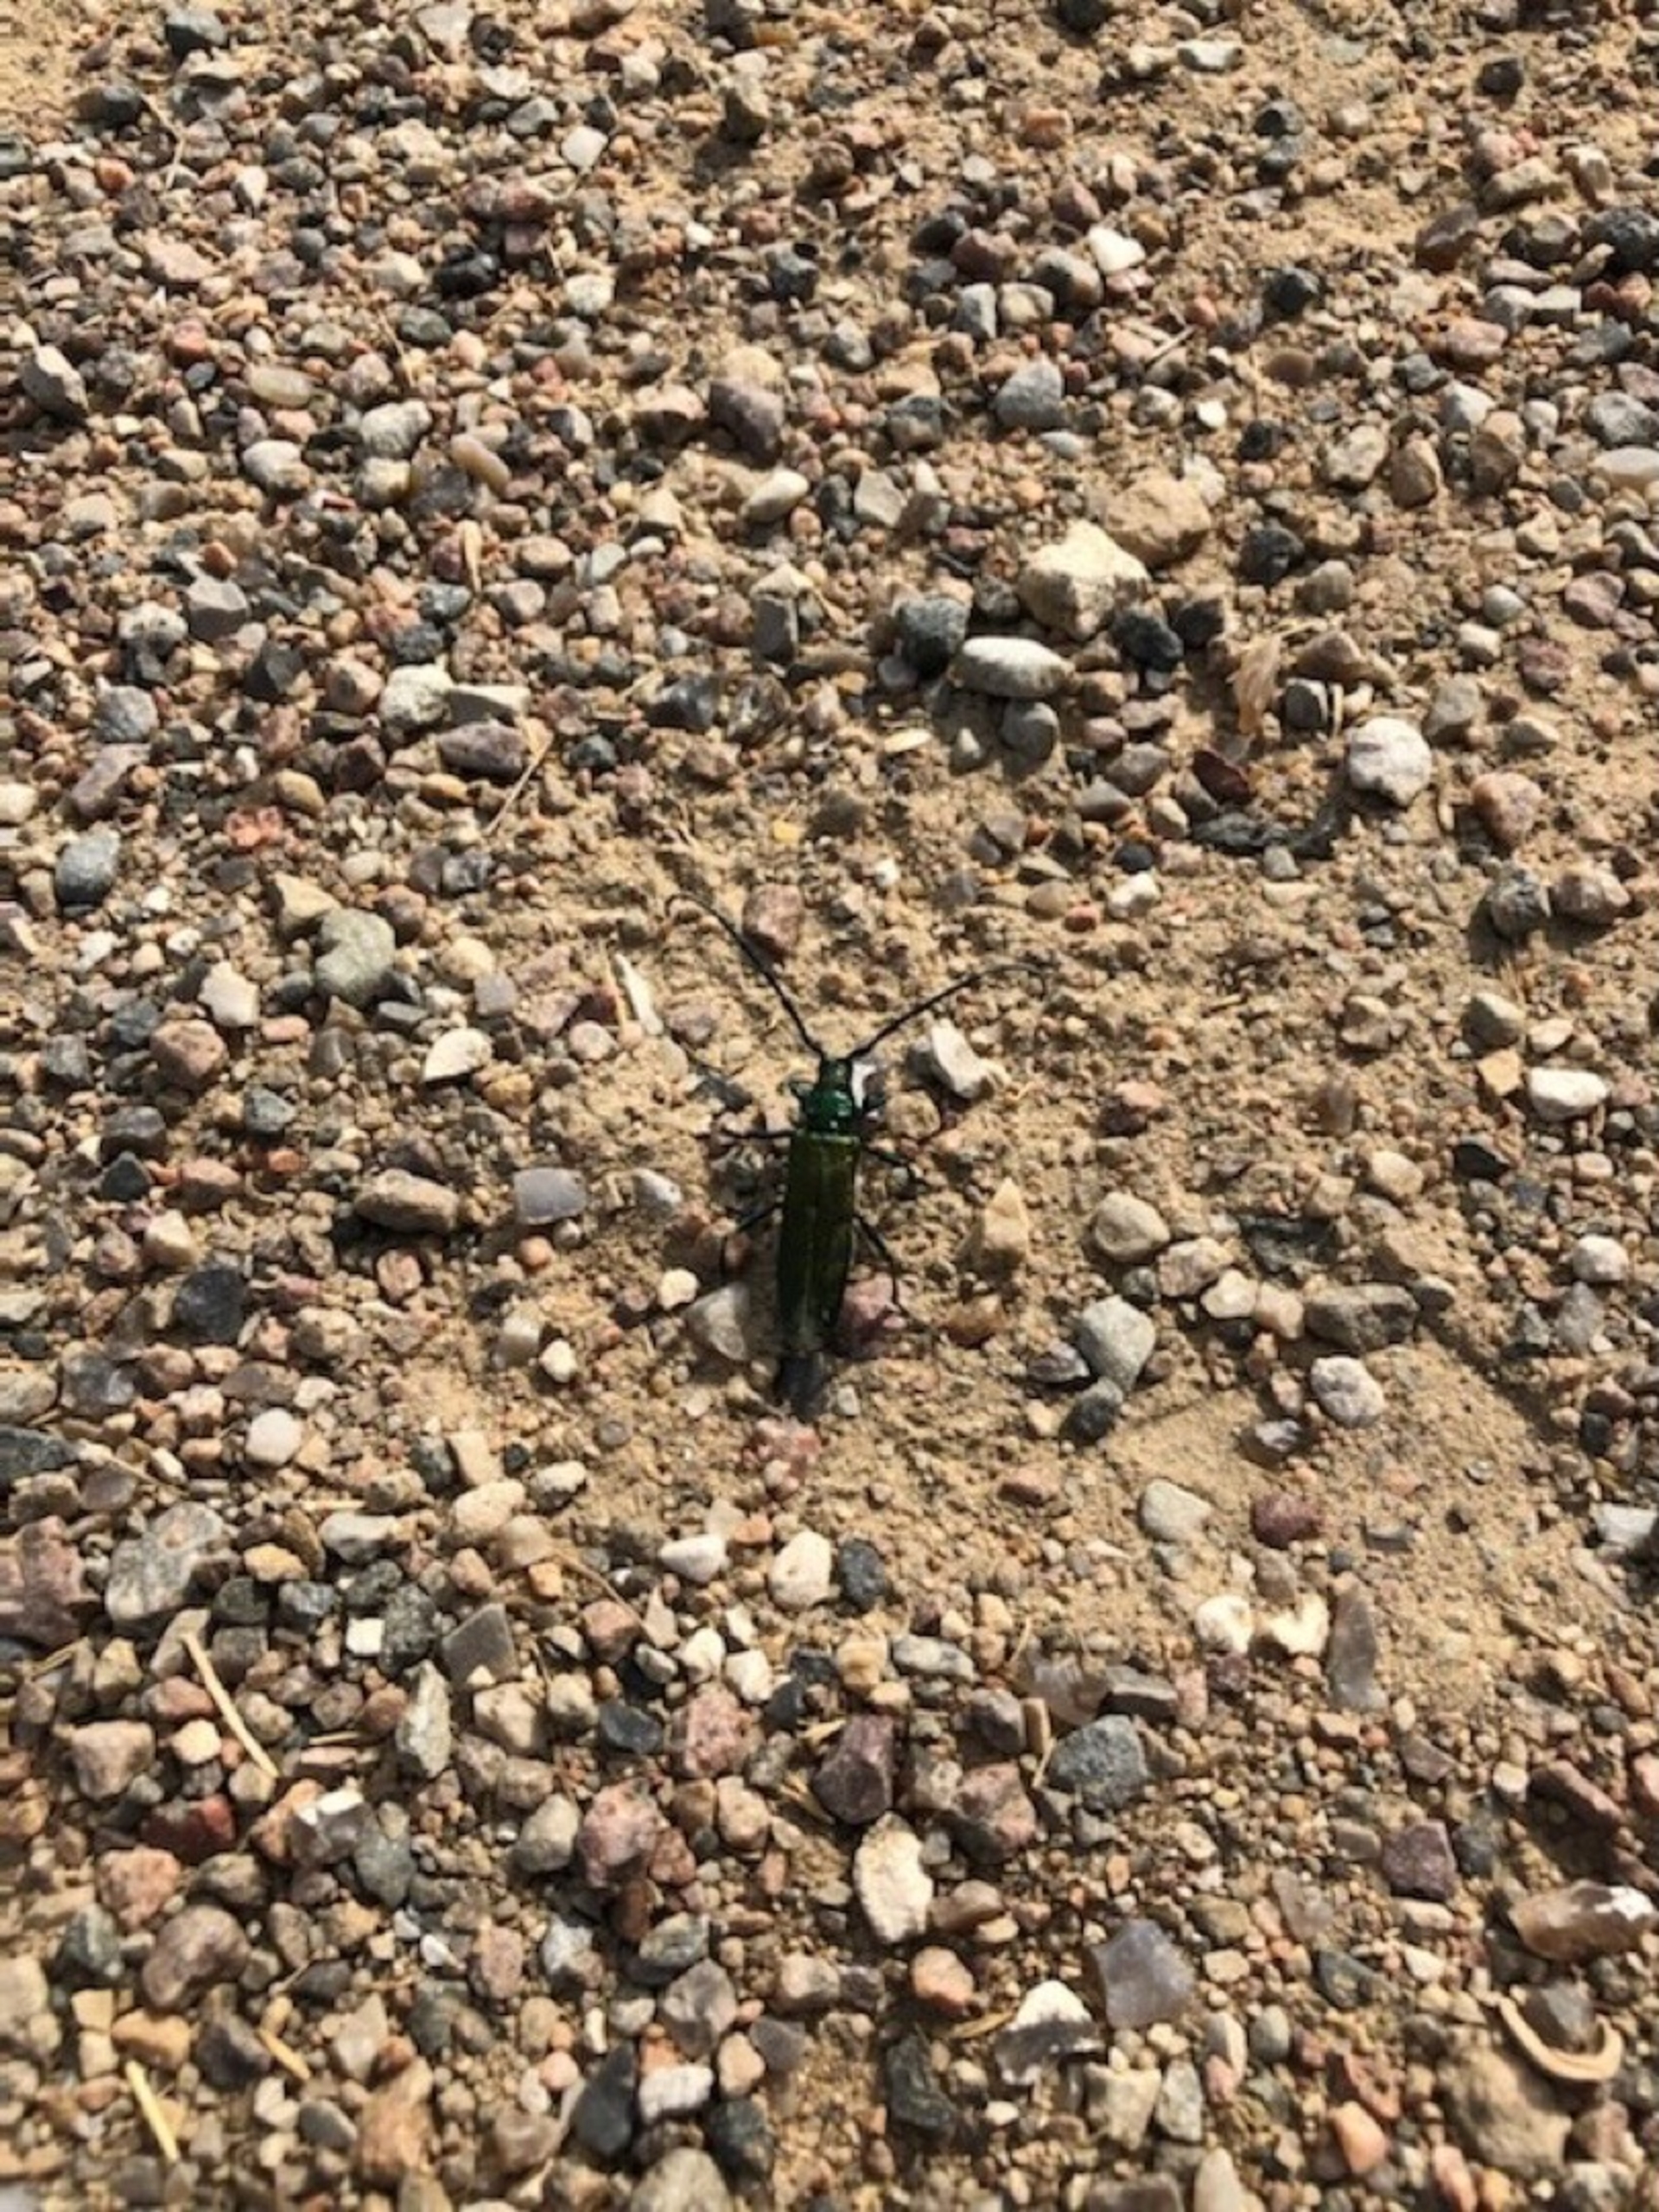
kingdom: Animalia
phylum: Arthropoda
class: Insecta
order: Coleoptera
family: Cerambycidae
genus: Aromia
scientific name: Aromia moschata
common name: Moskusbuk
